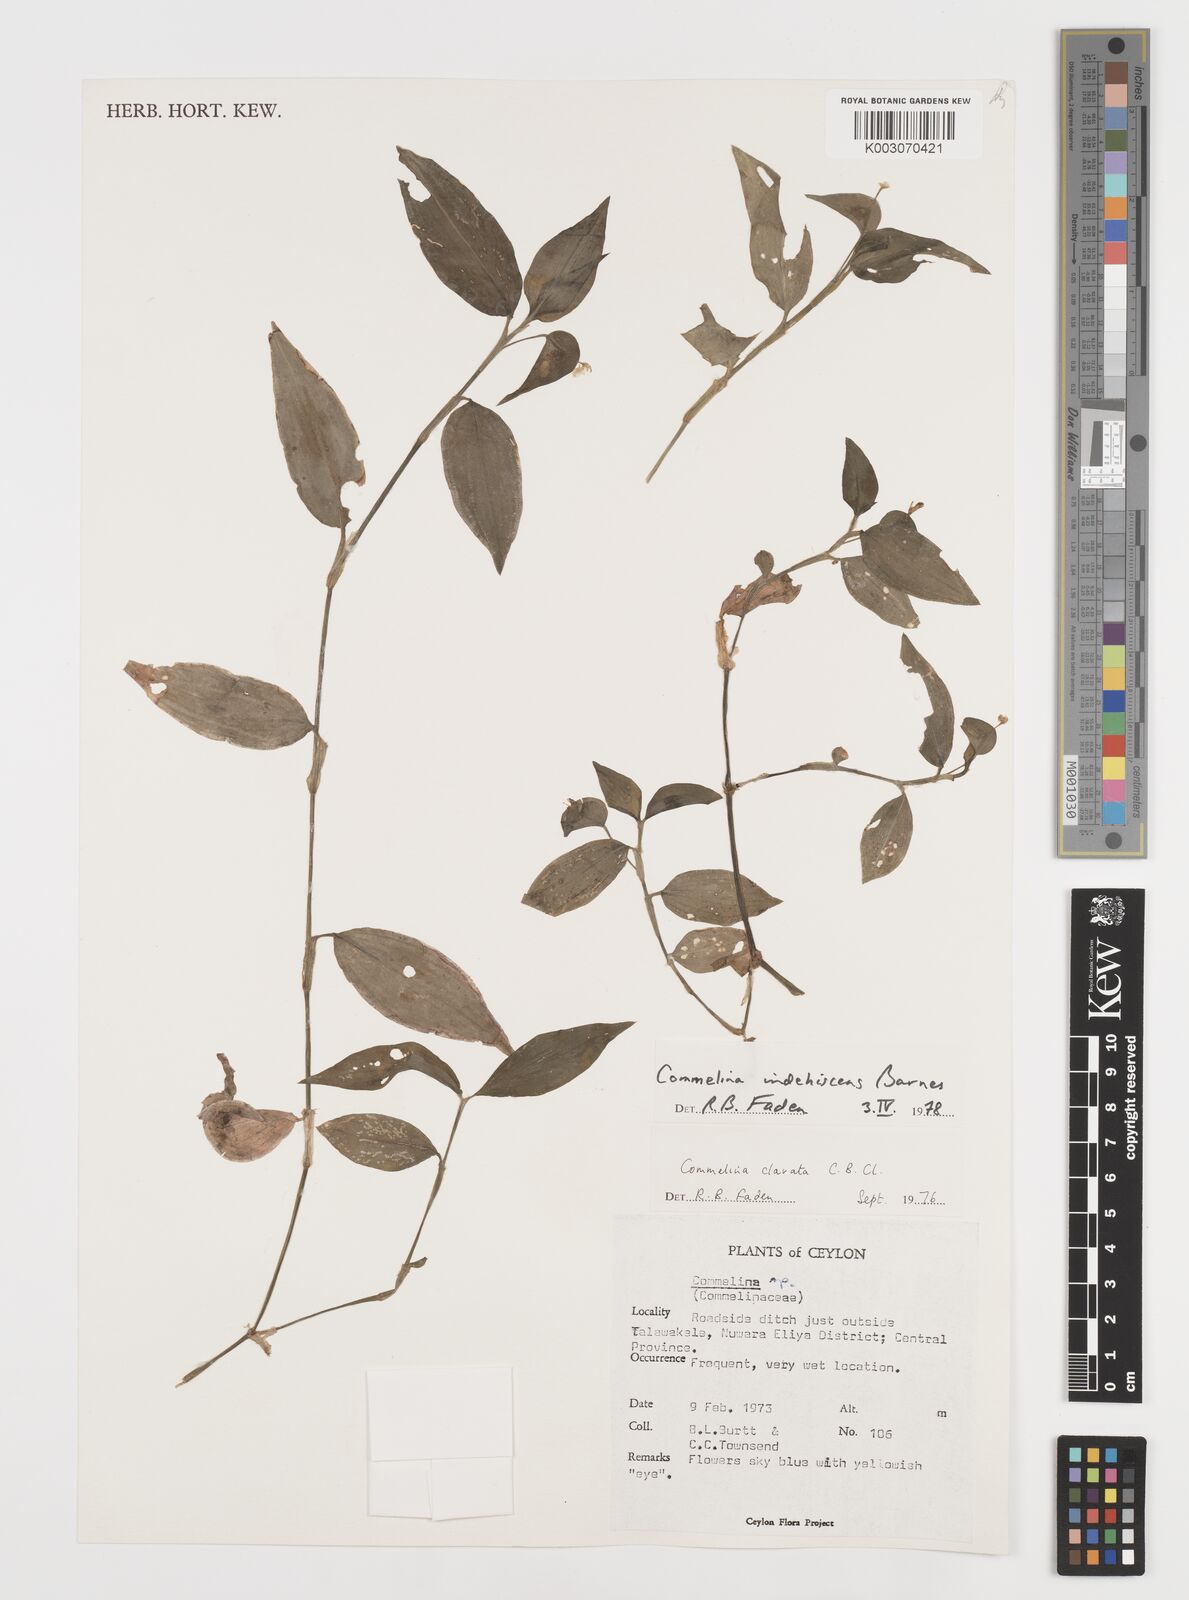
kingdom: Plantae
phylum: Tracheophyta
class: Liliopsida
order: Commelinales
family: Commelinaceae
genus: Commelina
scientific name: Commelina indehiscens
